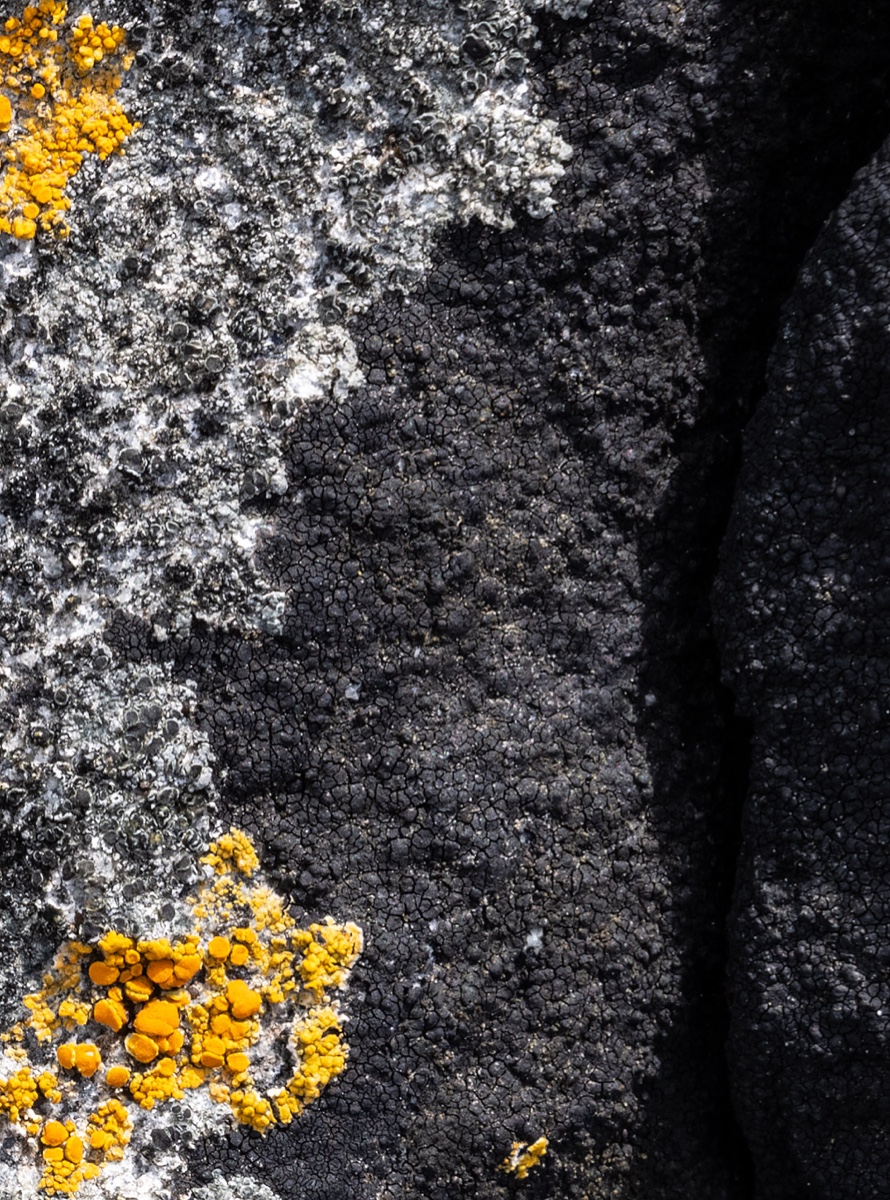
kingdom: Fungi
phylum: Ascomycota
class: Eurotiomycetes
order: Verrucariales
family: Verrucariaceae
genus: Hydropunctaria
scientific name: Hydropunctaria maura
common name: strand-vortelav
